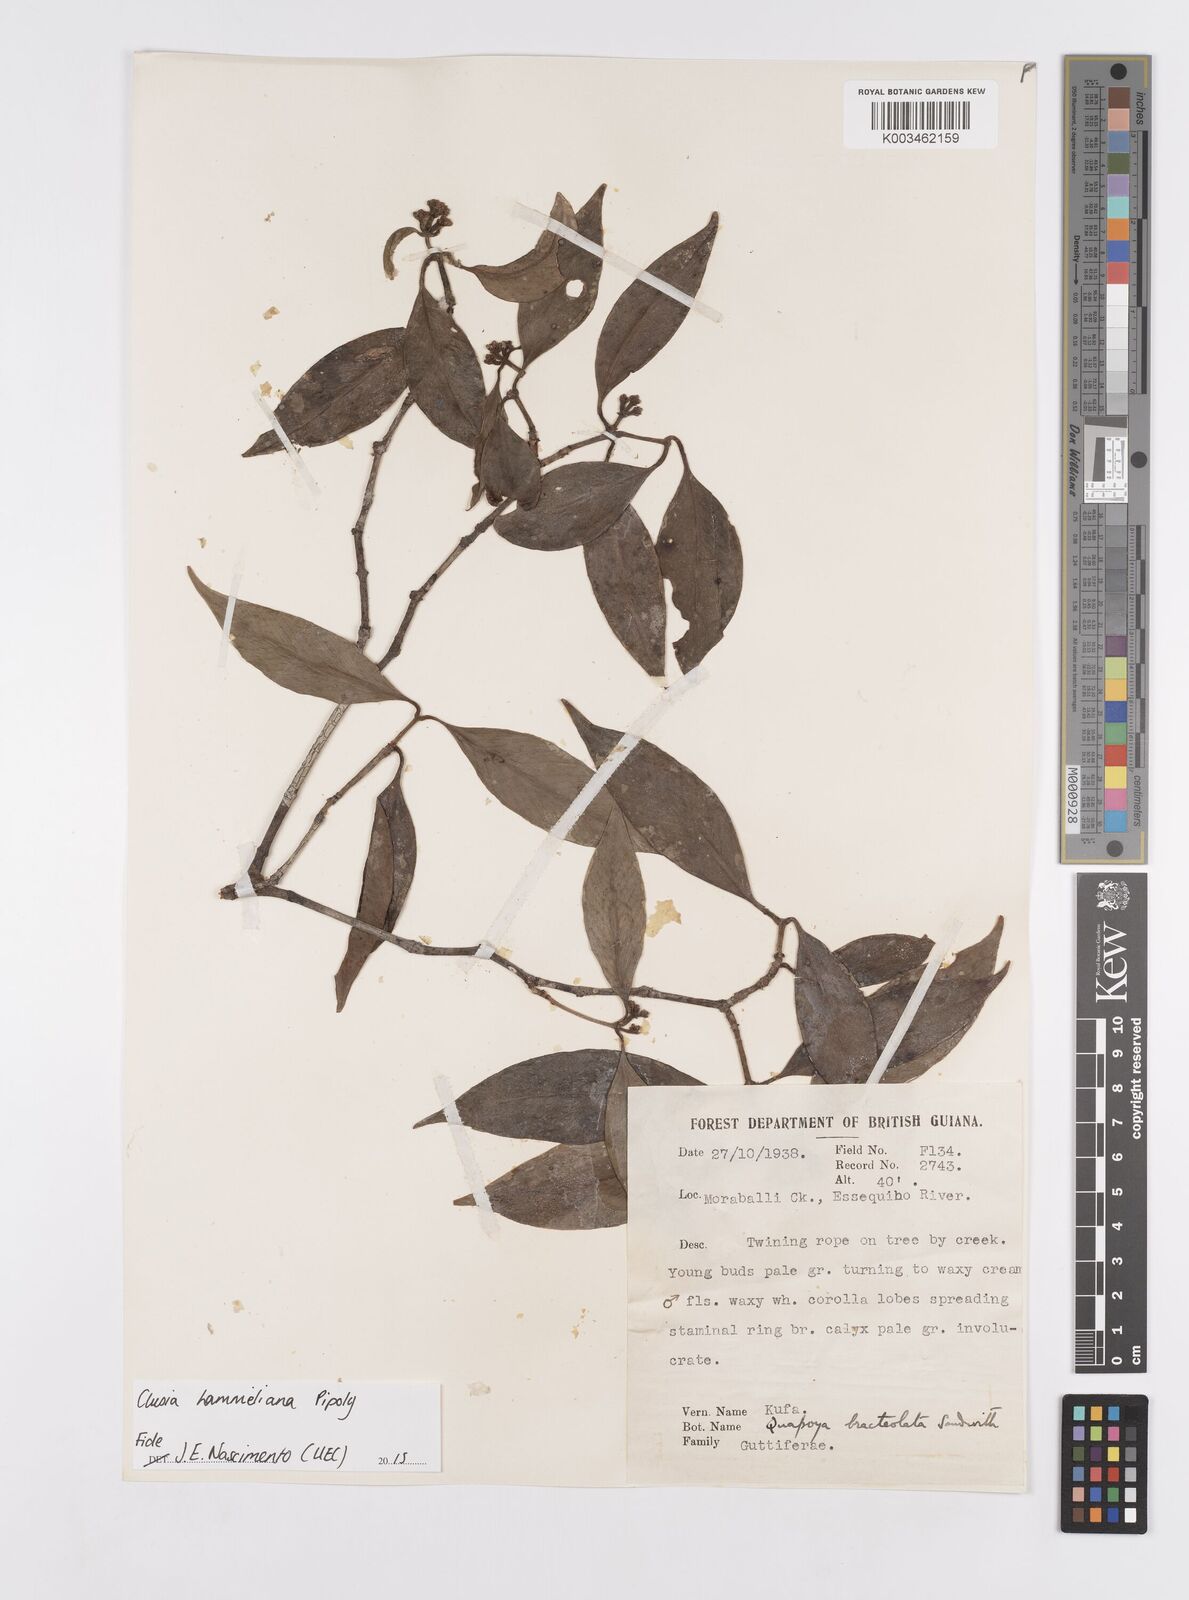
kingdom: Plantae
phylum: Tracheophyta
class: Magnoliopsida
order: Malpighiales
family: Clusiaceae
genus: Clusia
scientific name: Clusia hammeliana
